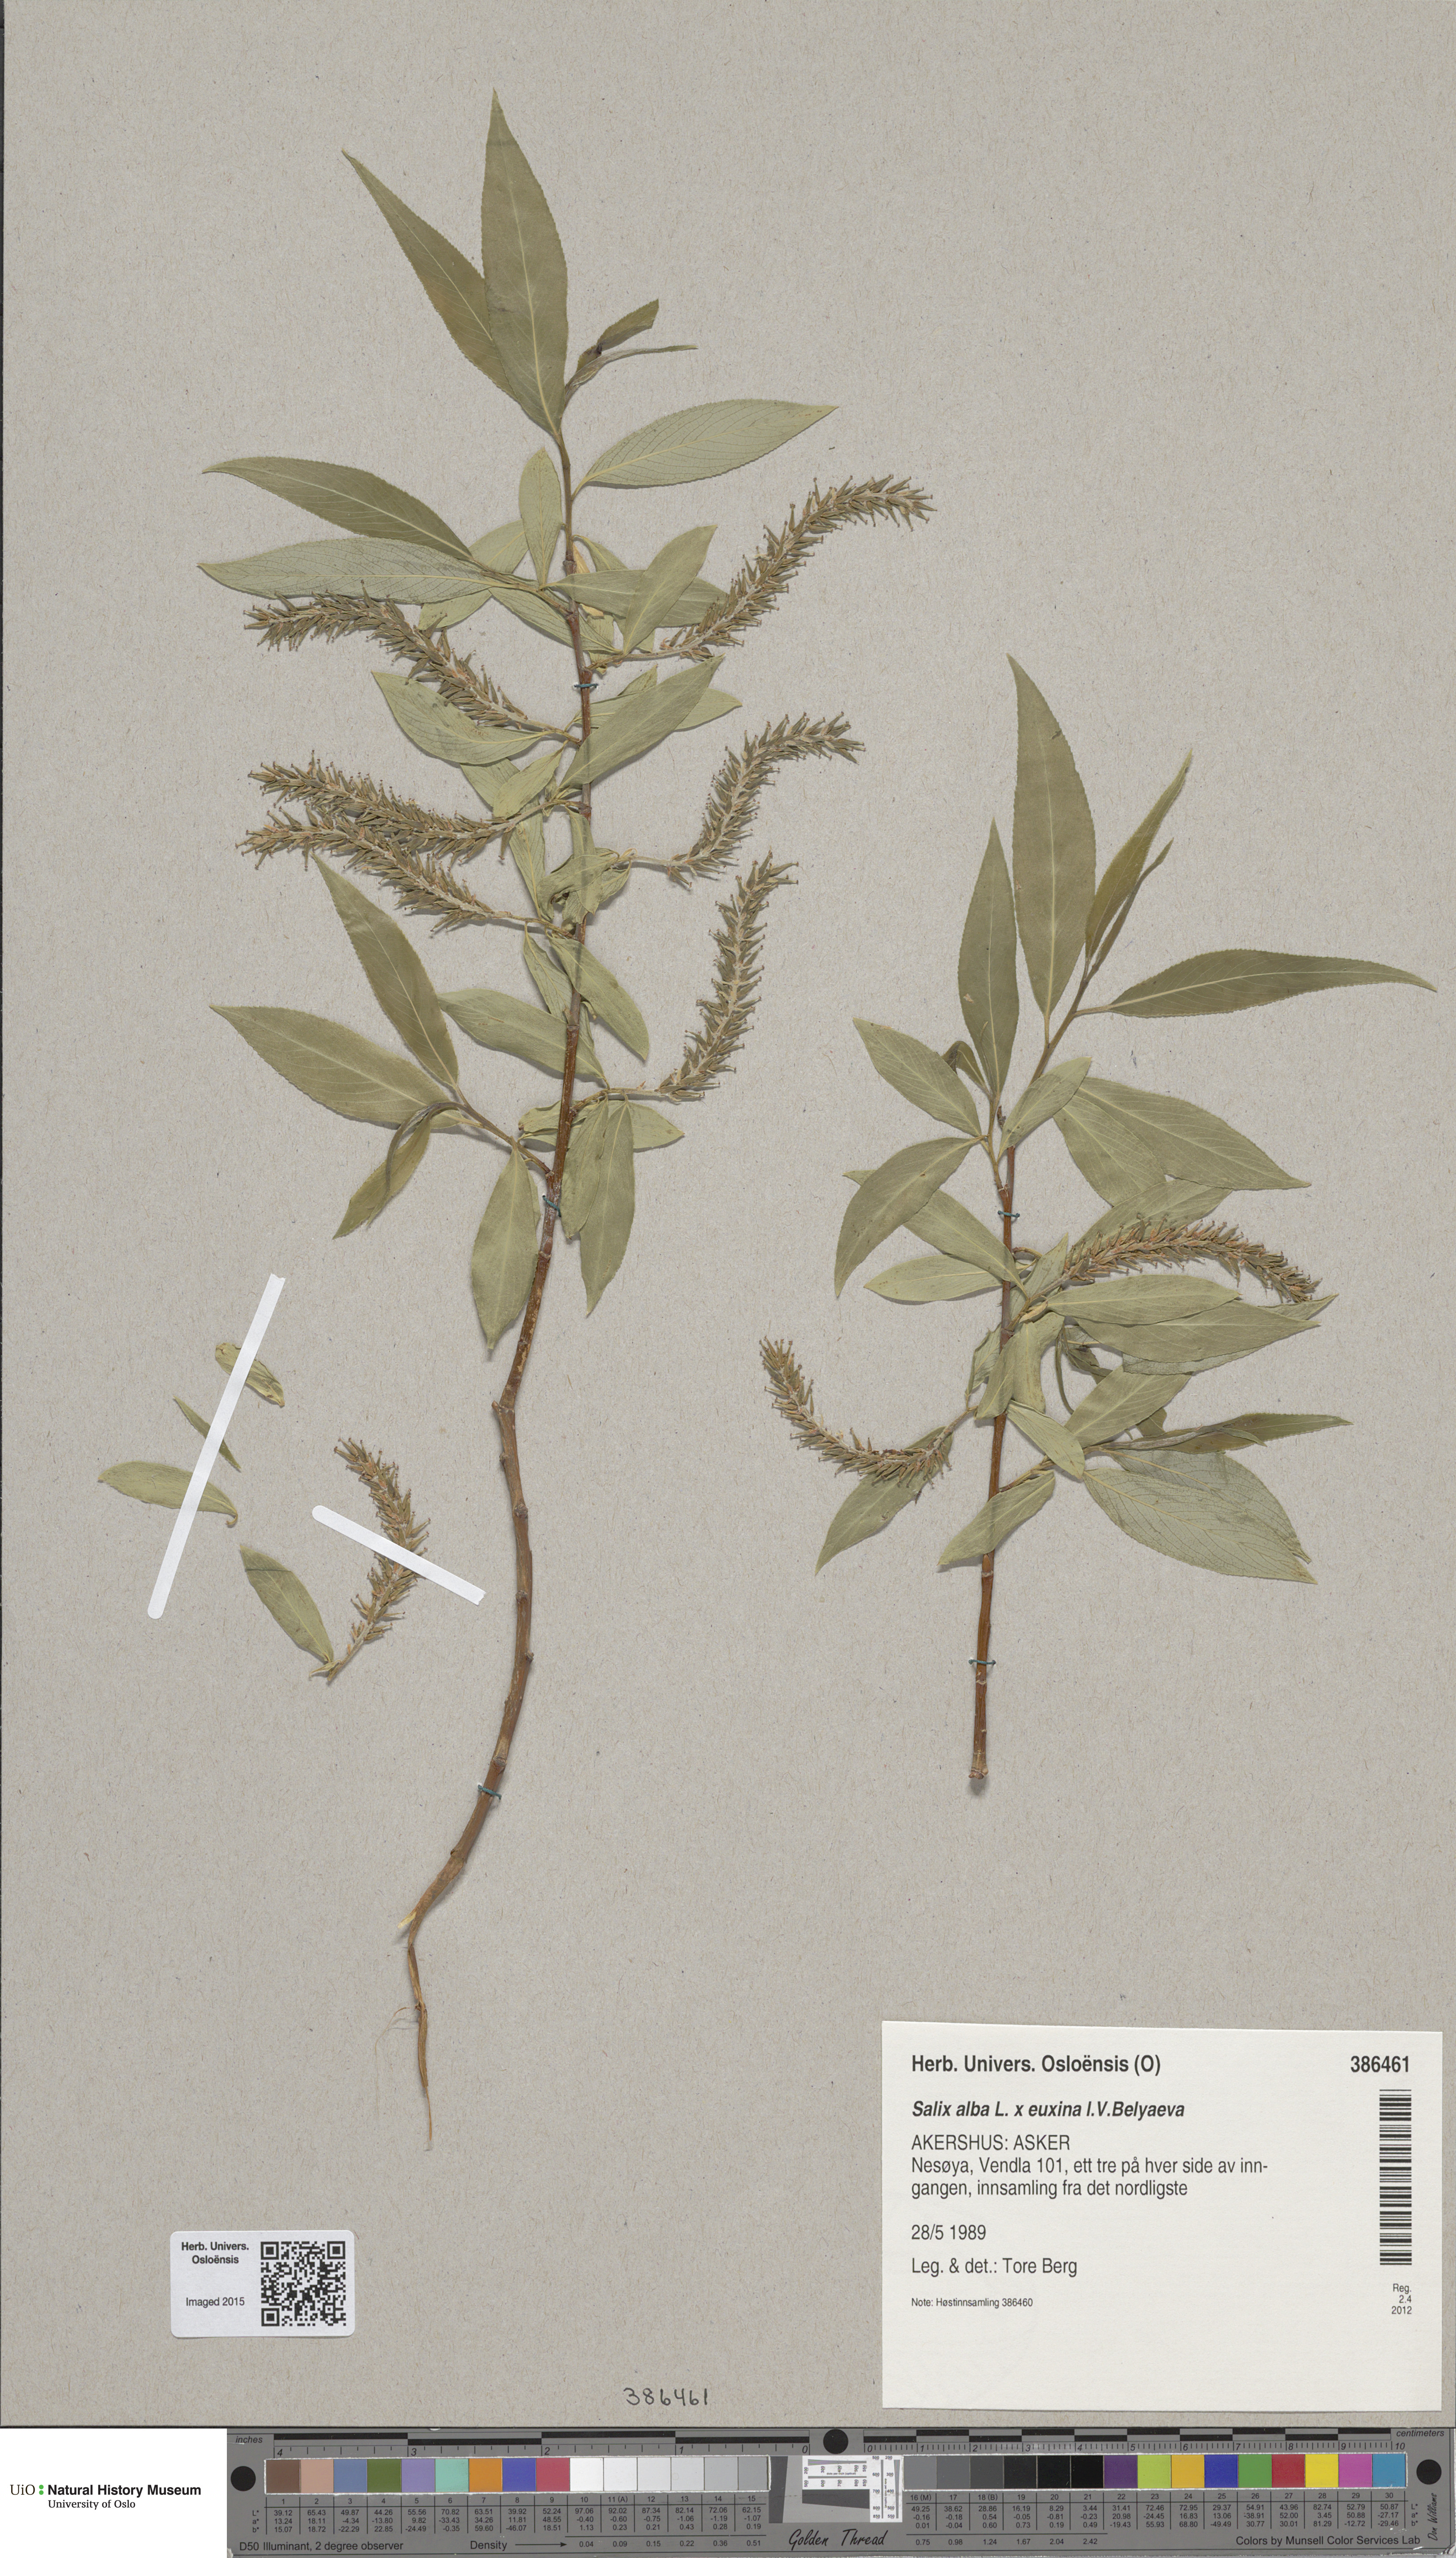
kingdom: Plantae
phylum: Tracheophyta
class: Magnoliopsida
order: Malpighiales
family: Salicaceae
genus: Salix
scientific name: Salix
